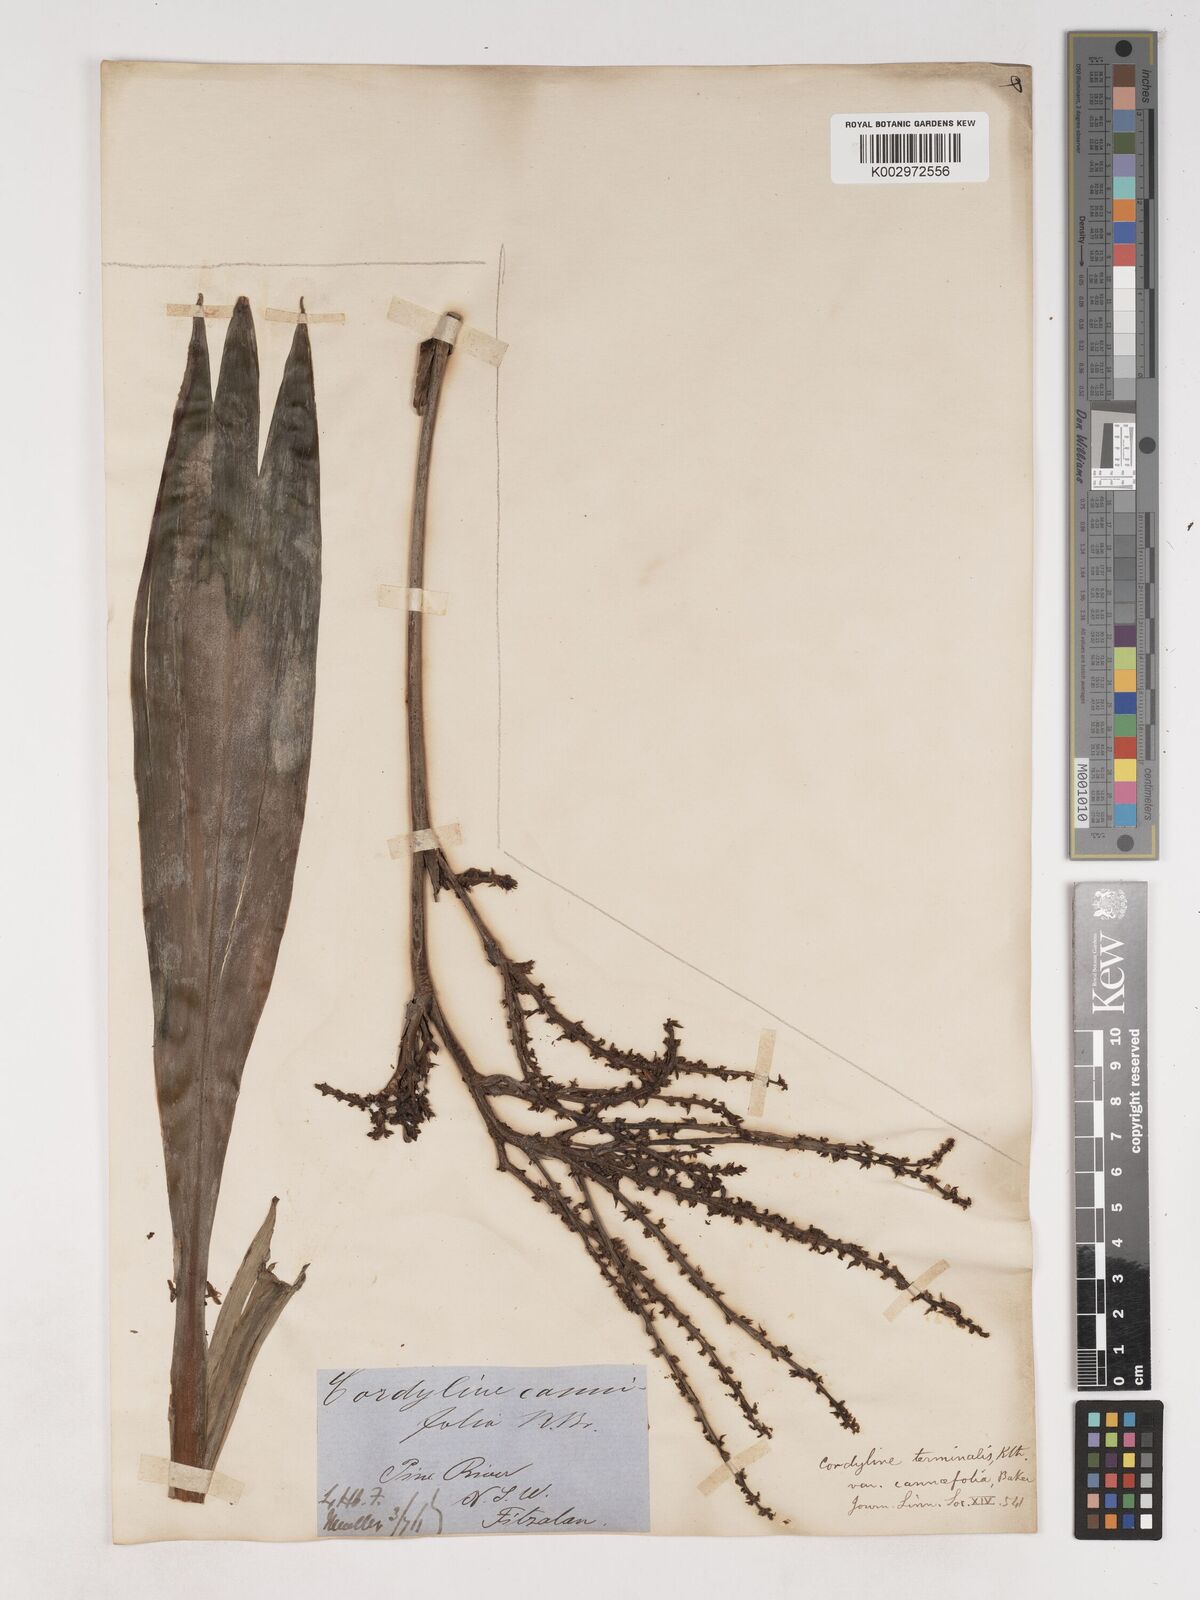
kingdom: Plantae
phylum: Tracheophyta
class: Liliopsida
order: Asparagales
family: Asparagaceae
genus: Cordyline
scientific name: Cordyline fruticosa
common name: Good-luck-plant
